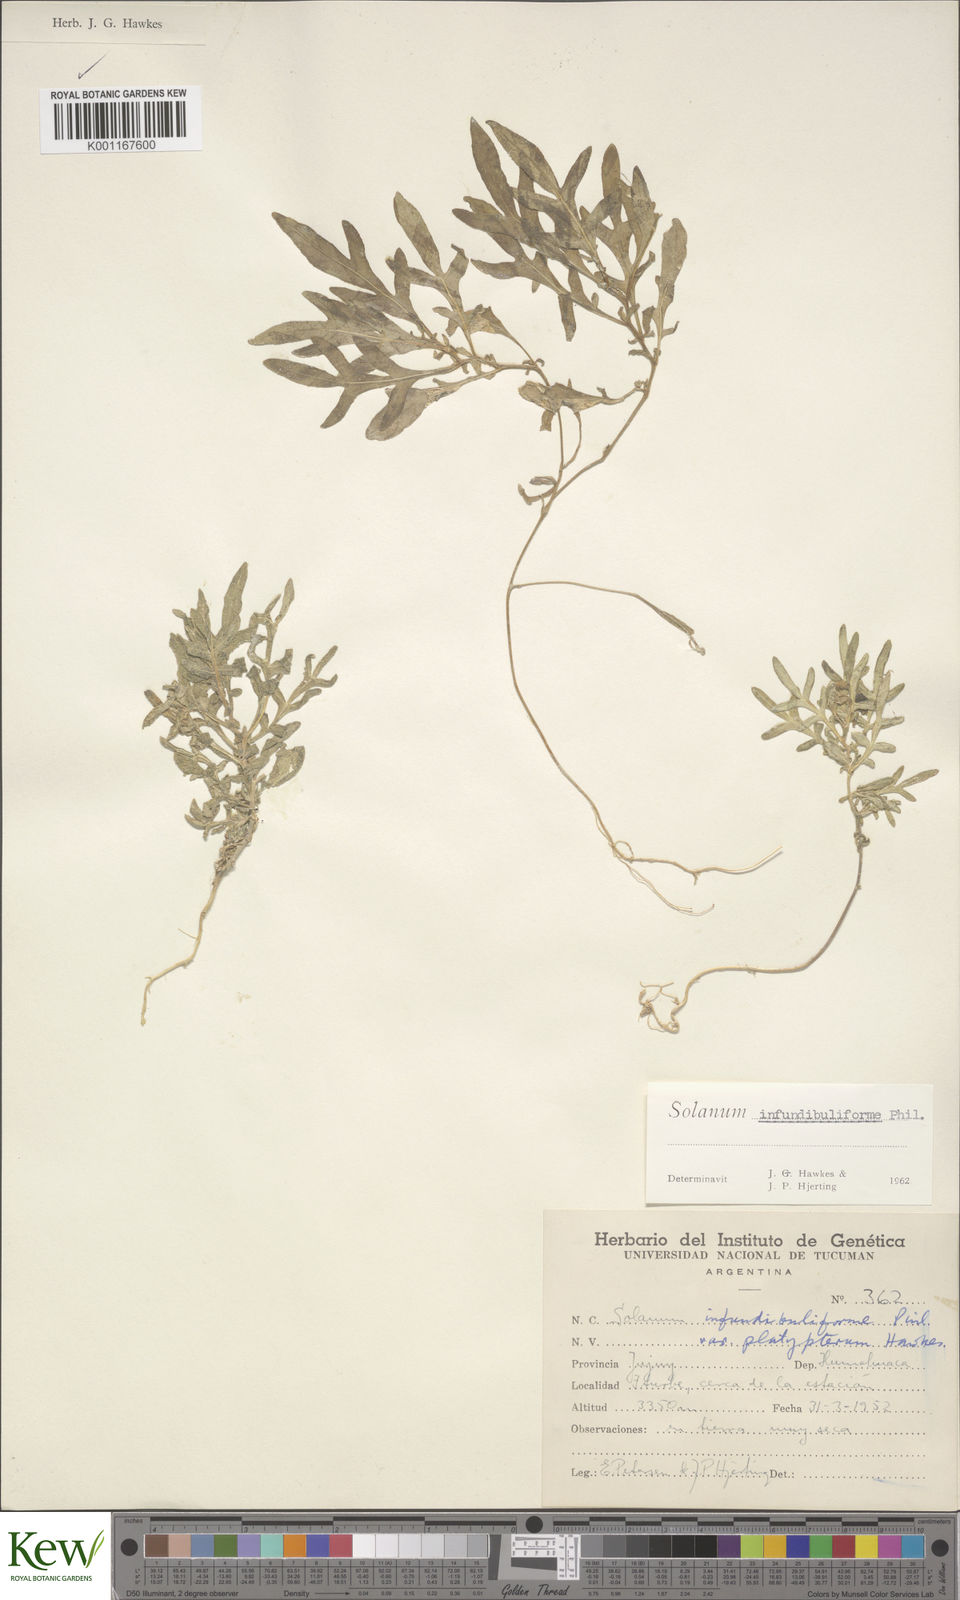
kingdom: Plantae
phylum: Tracheophyta
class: Magnoliopsida
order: Solanales
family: Solanaceae
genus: Solanum
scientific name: Solanum infundibuliforme
